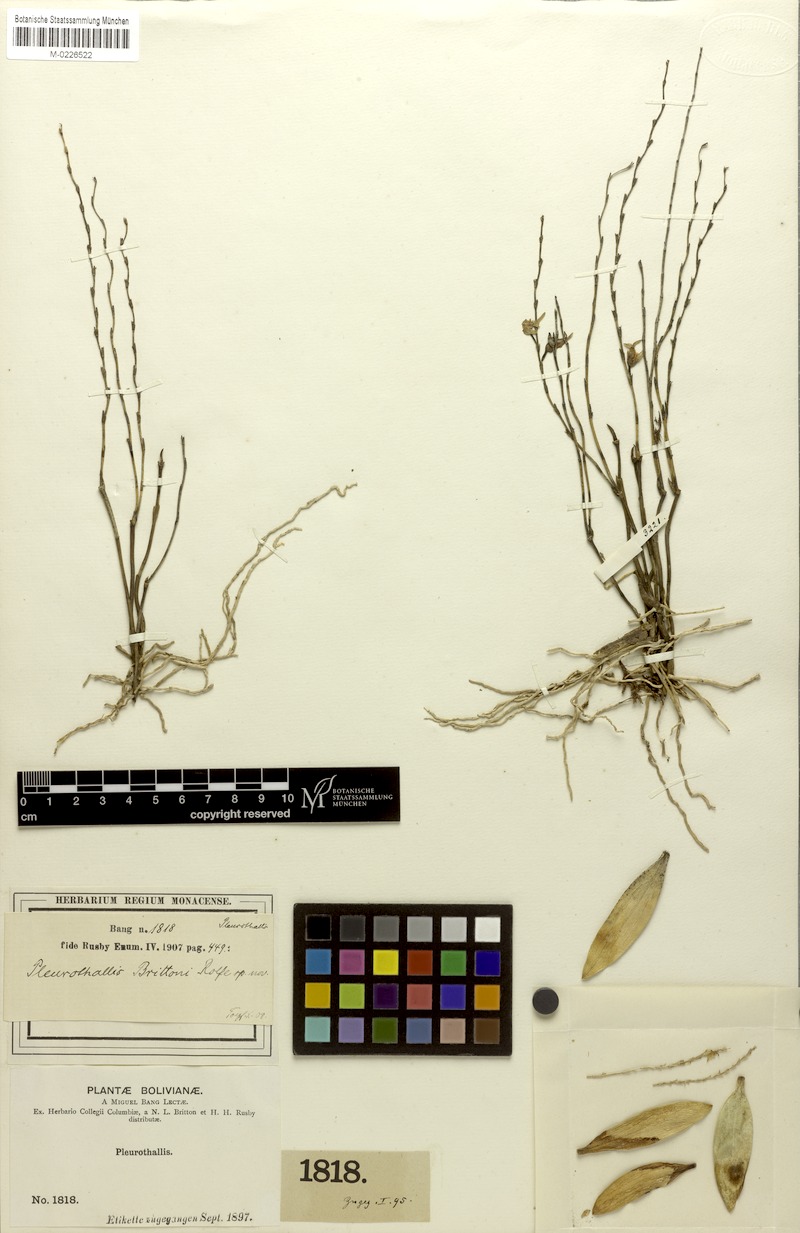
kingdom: Plantae
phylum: Tracheophyta
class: Liliopsida
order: Asparagales
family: Orchidaceae
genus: Stelis
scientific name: Stelis aurea
